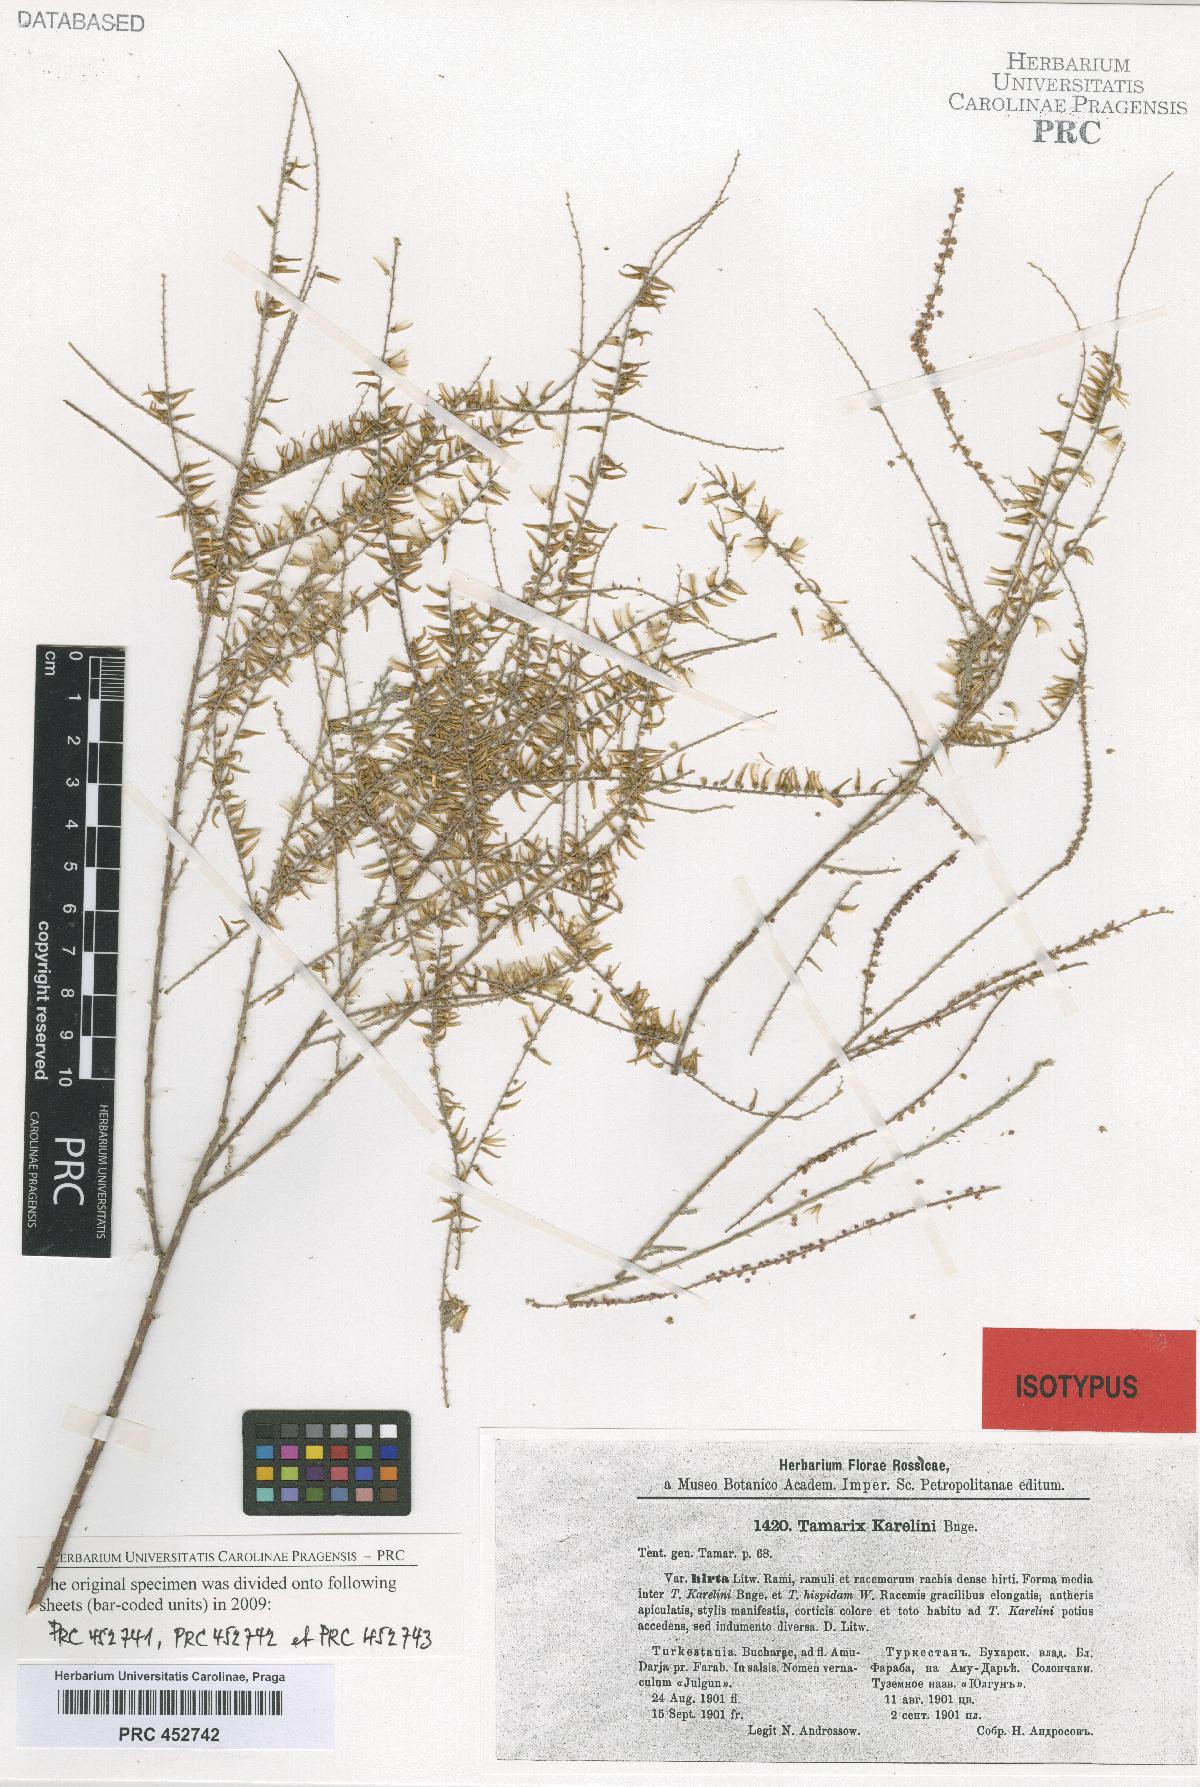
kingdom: Plantae
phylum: Tracheophyta
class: Magnoliopsida
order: Caryophyllales
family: Tamaricaceae
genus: Tamarix
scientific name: Tamarix hispida
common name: Kashgar tamarisk
